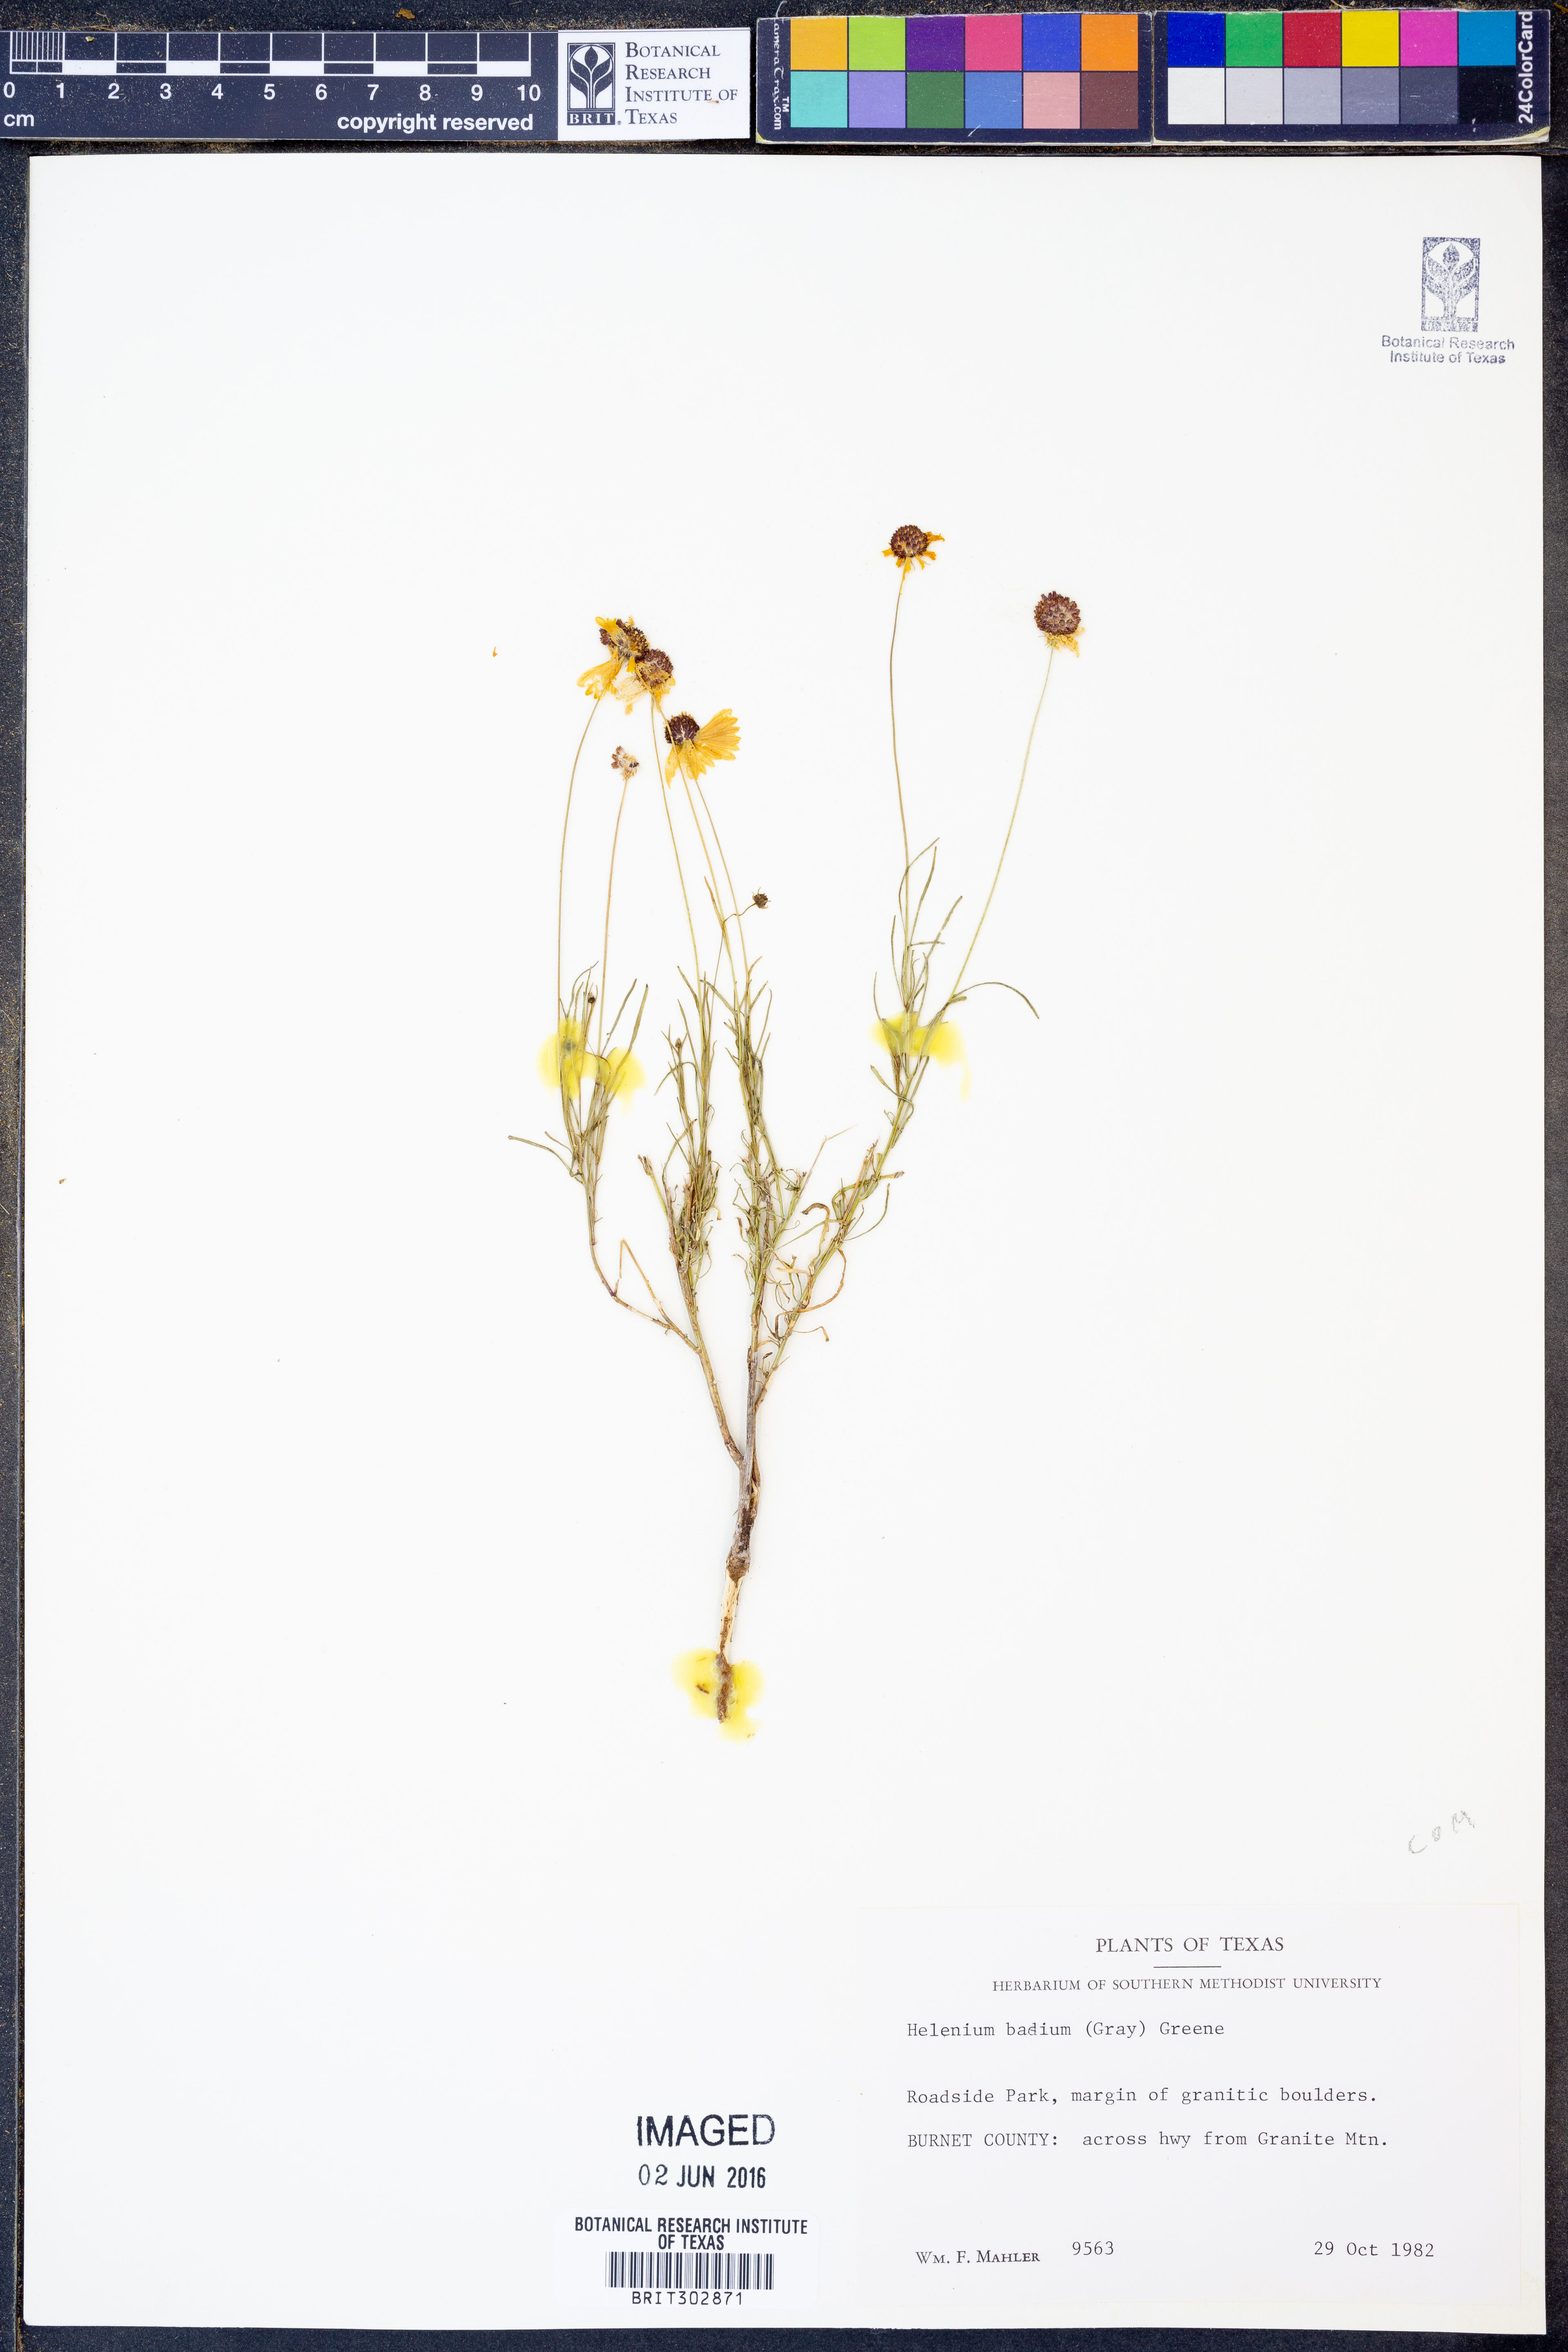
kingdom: Plantae
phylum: Tracheophyta
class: Magnoliopsida
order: Asterales
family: Asteraceae
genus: Helenium
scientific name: Helenium amarum
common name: Bitter sneezeweed
